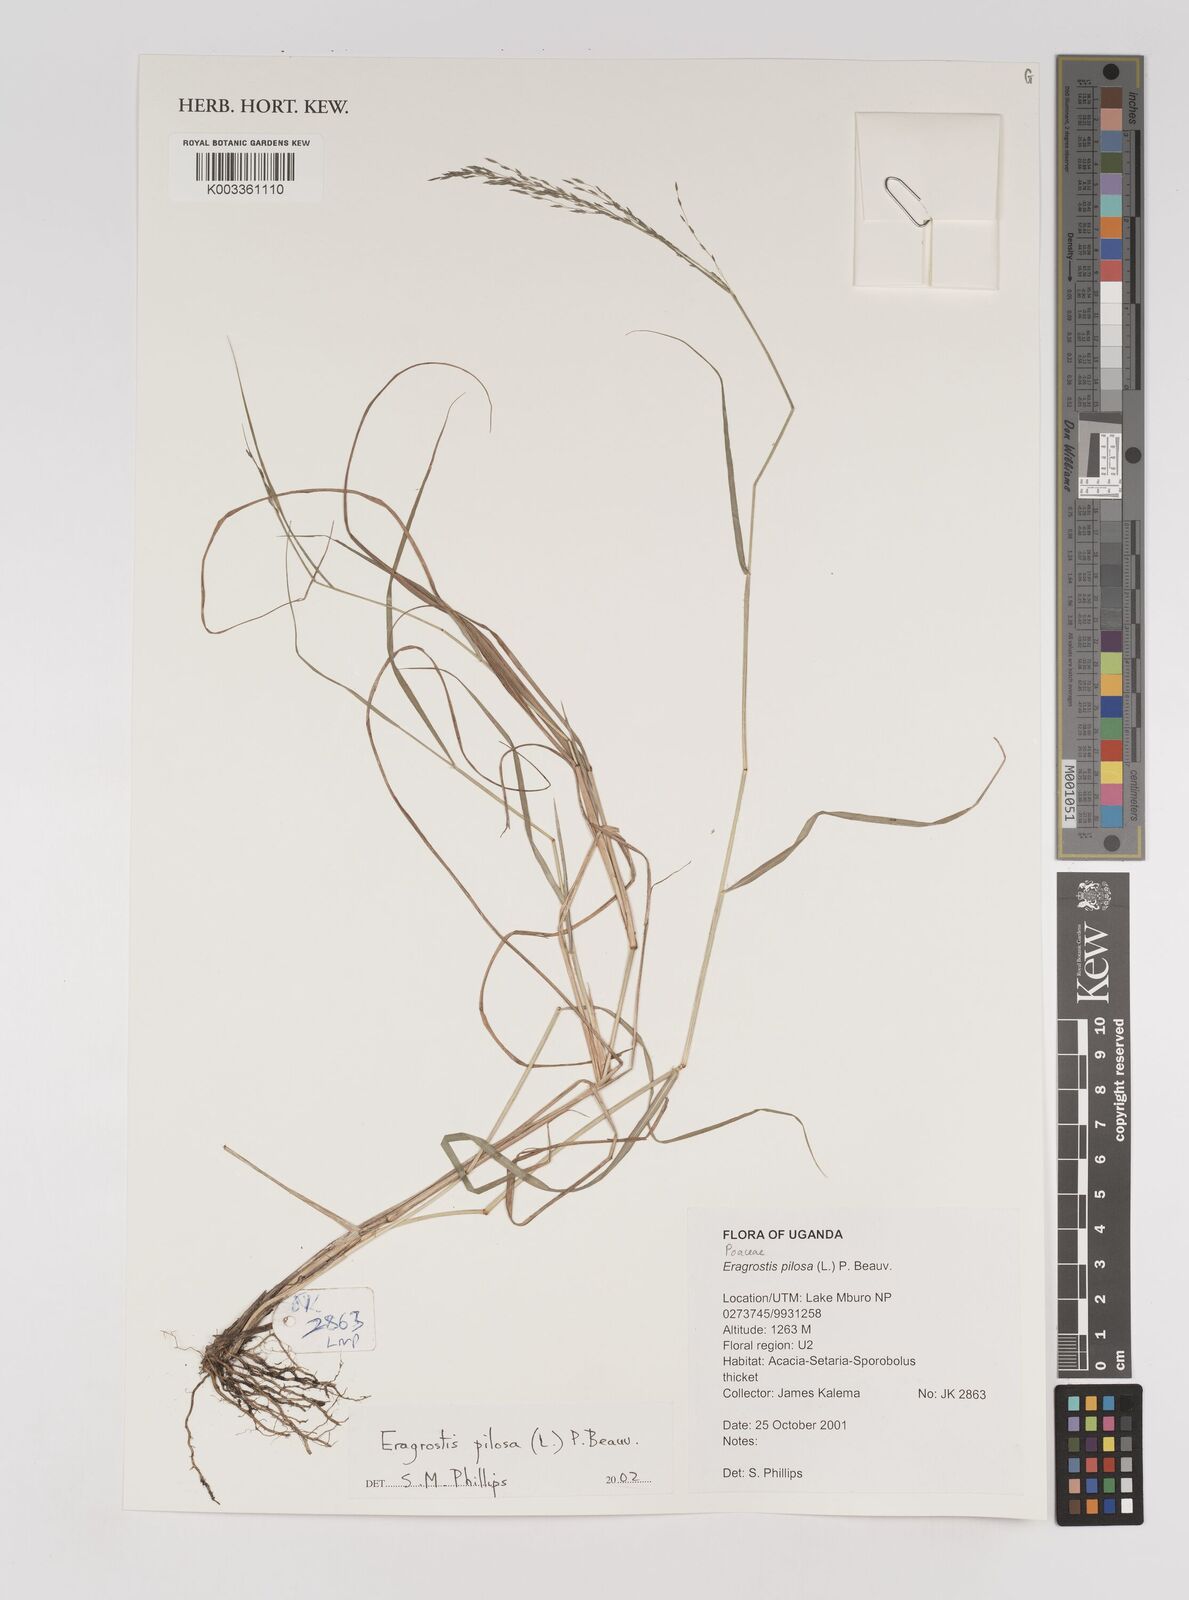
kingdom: Plantae
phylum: Tracheophyta
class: Liliopsida
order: Poales
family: Poaceae
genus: Eragrostis
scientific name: Eragrostis pilosa
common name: Indian lovegrass
